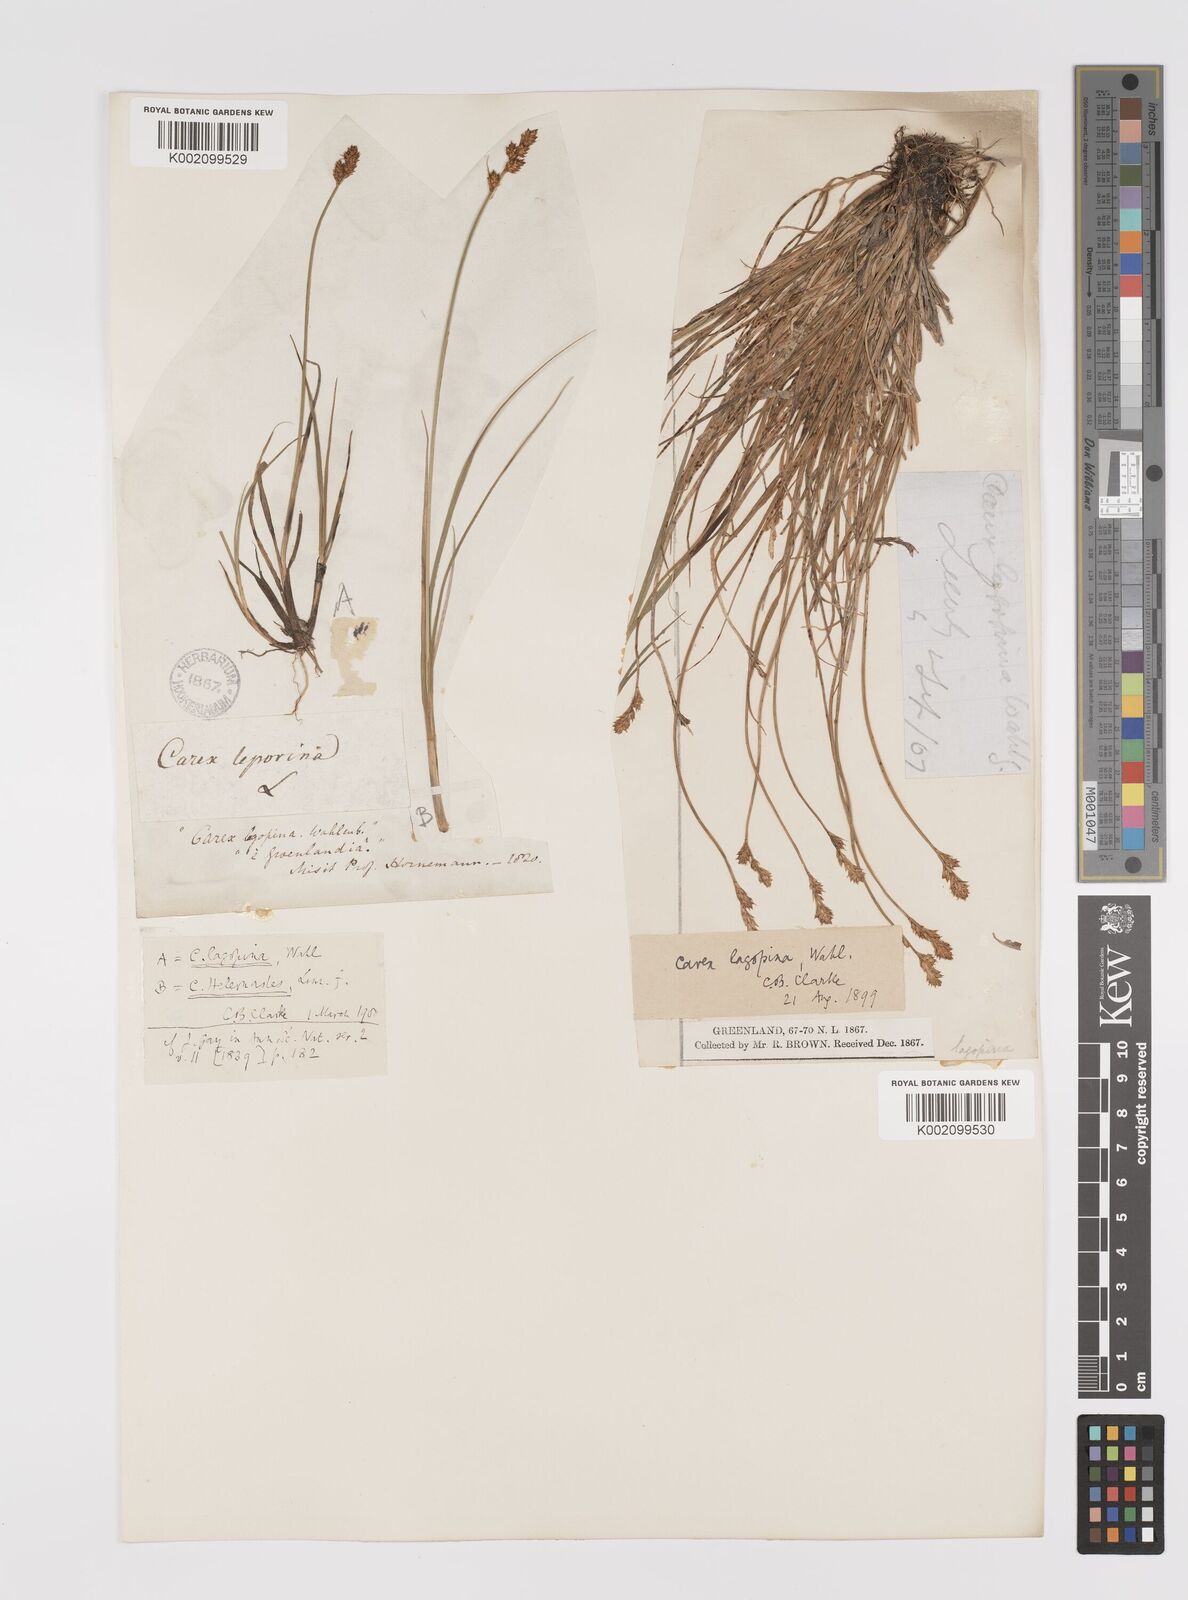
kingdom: Plantae
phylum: Tracheophyta
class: Liliopsida
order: Poales
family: Cyperaceae
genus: Carex
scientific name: Carex lachenalii
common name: Hare's-foot sedge
